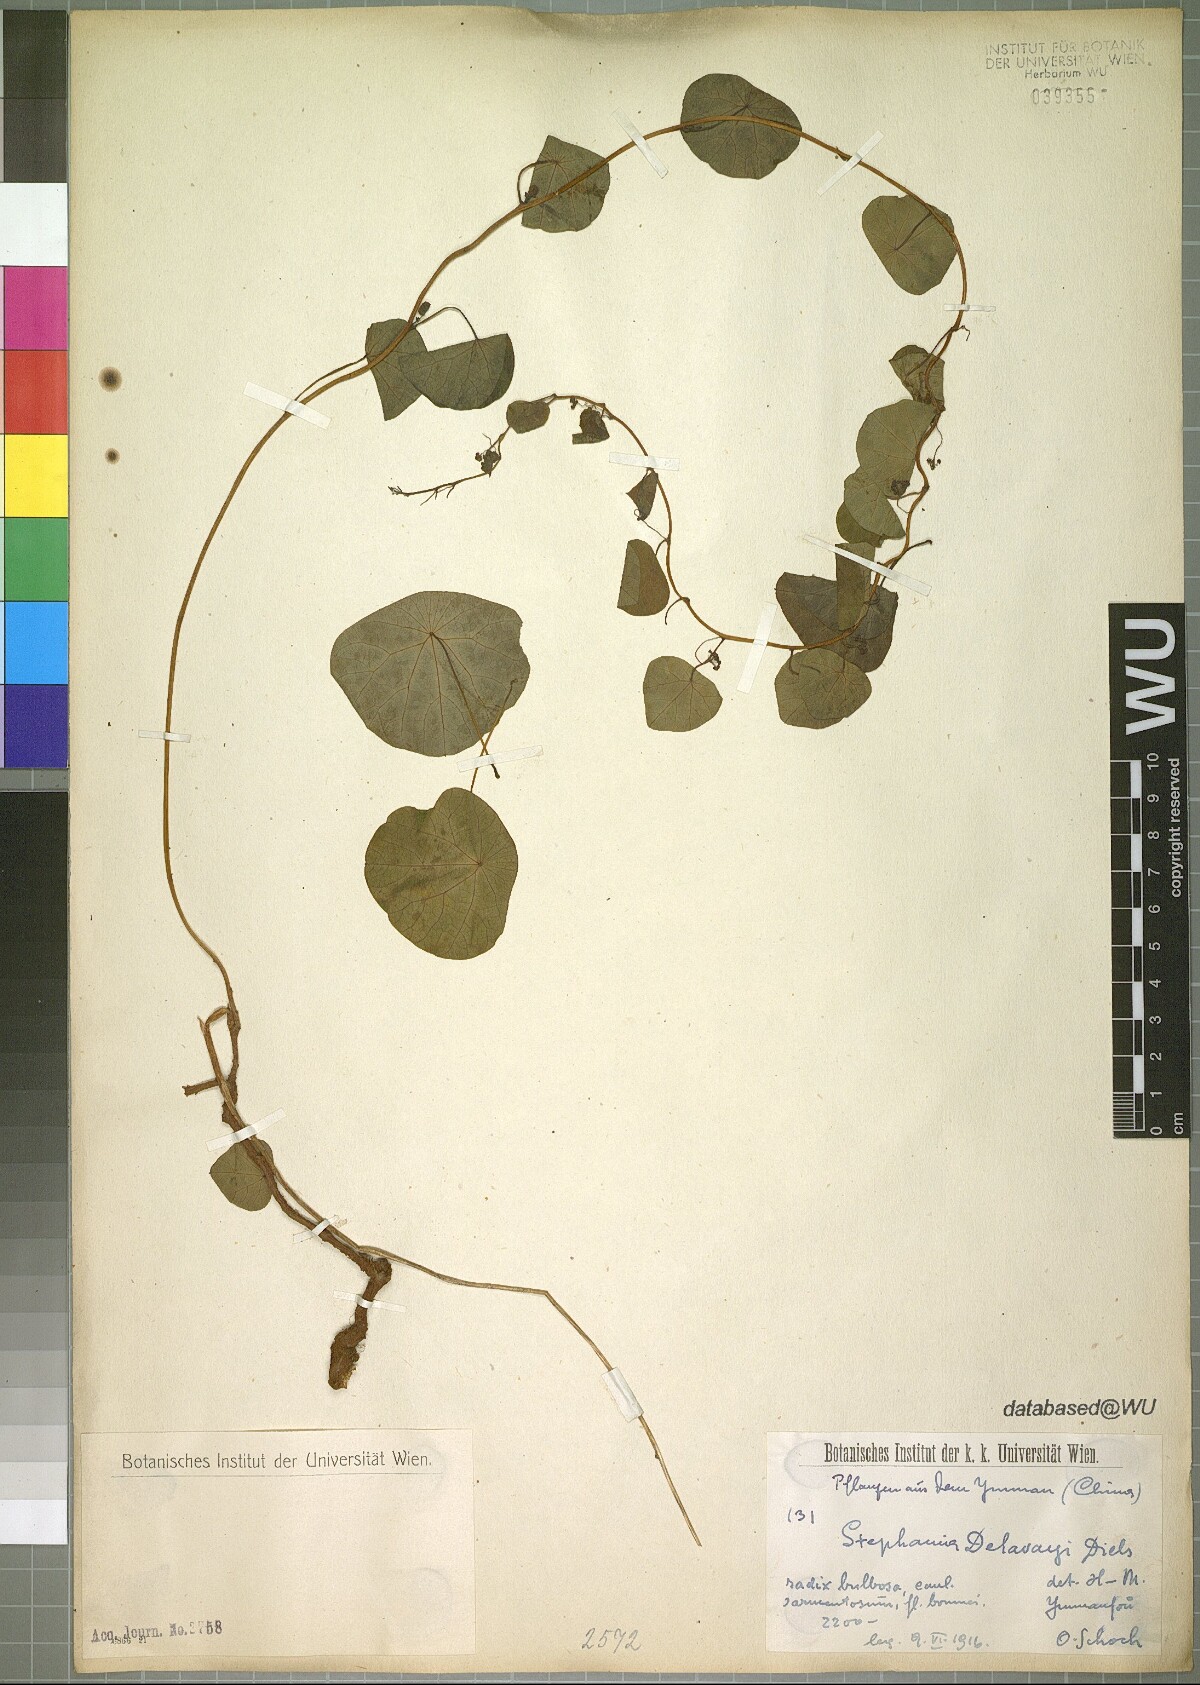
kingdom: Plantae
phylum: Tracheophyta
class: Magnoliopsida
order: Ranunculales
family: Menispermaceae
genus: Stephania
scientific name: Stephania delavayi
